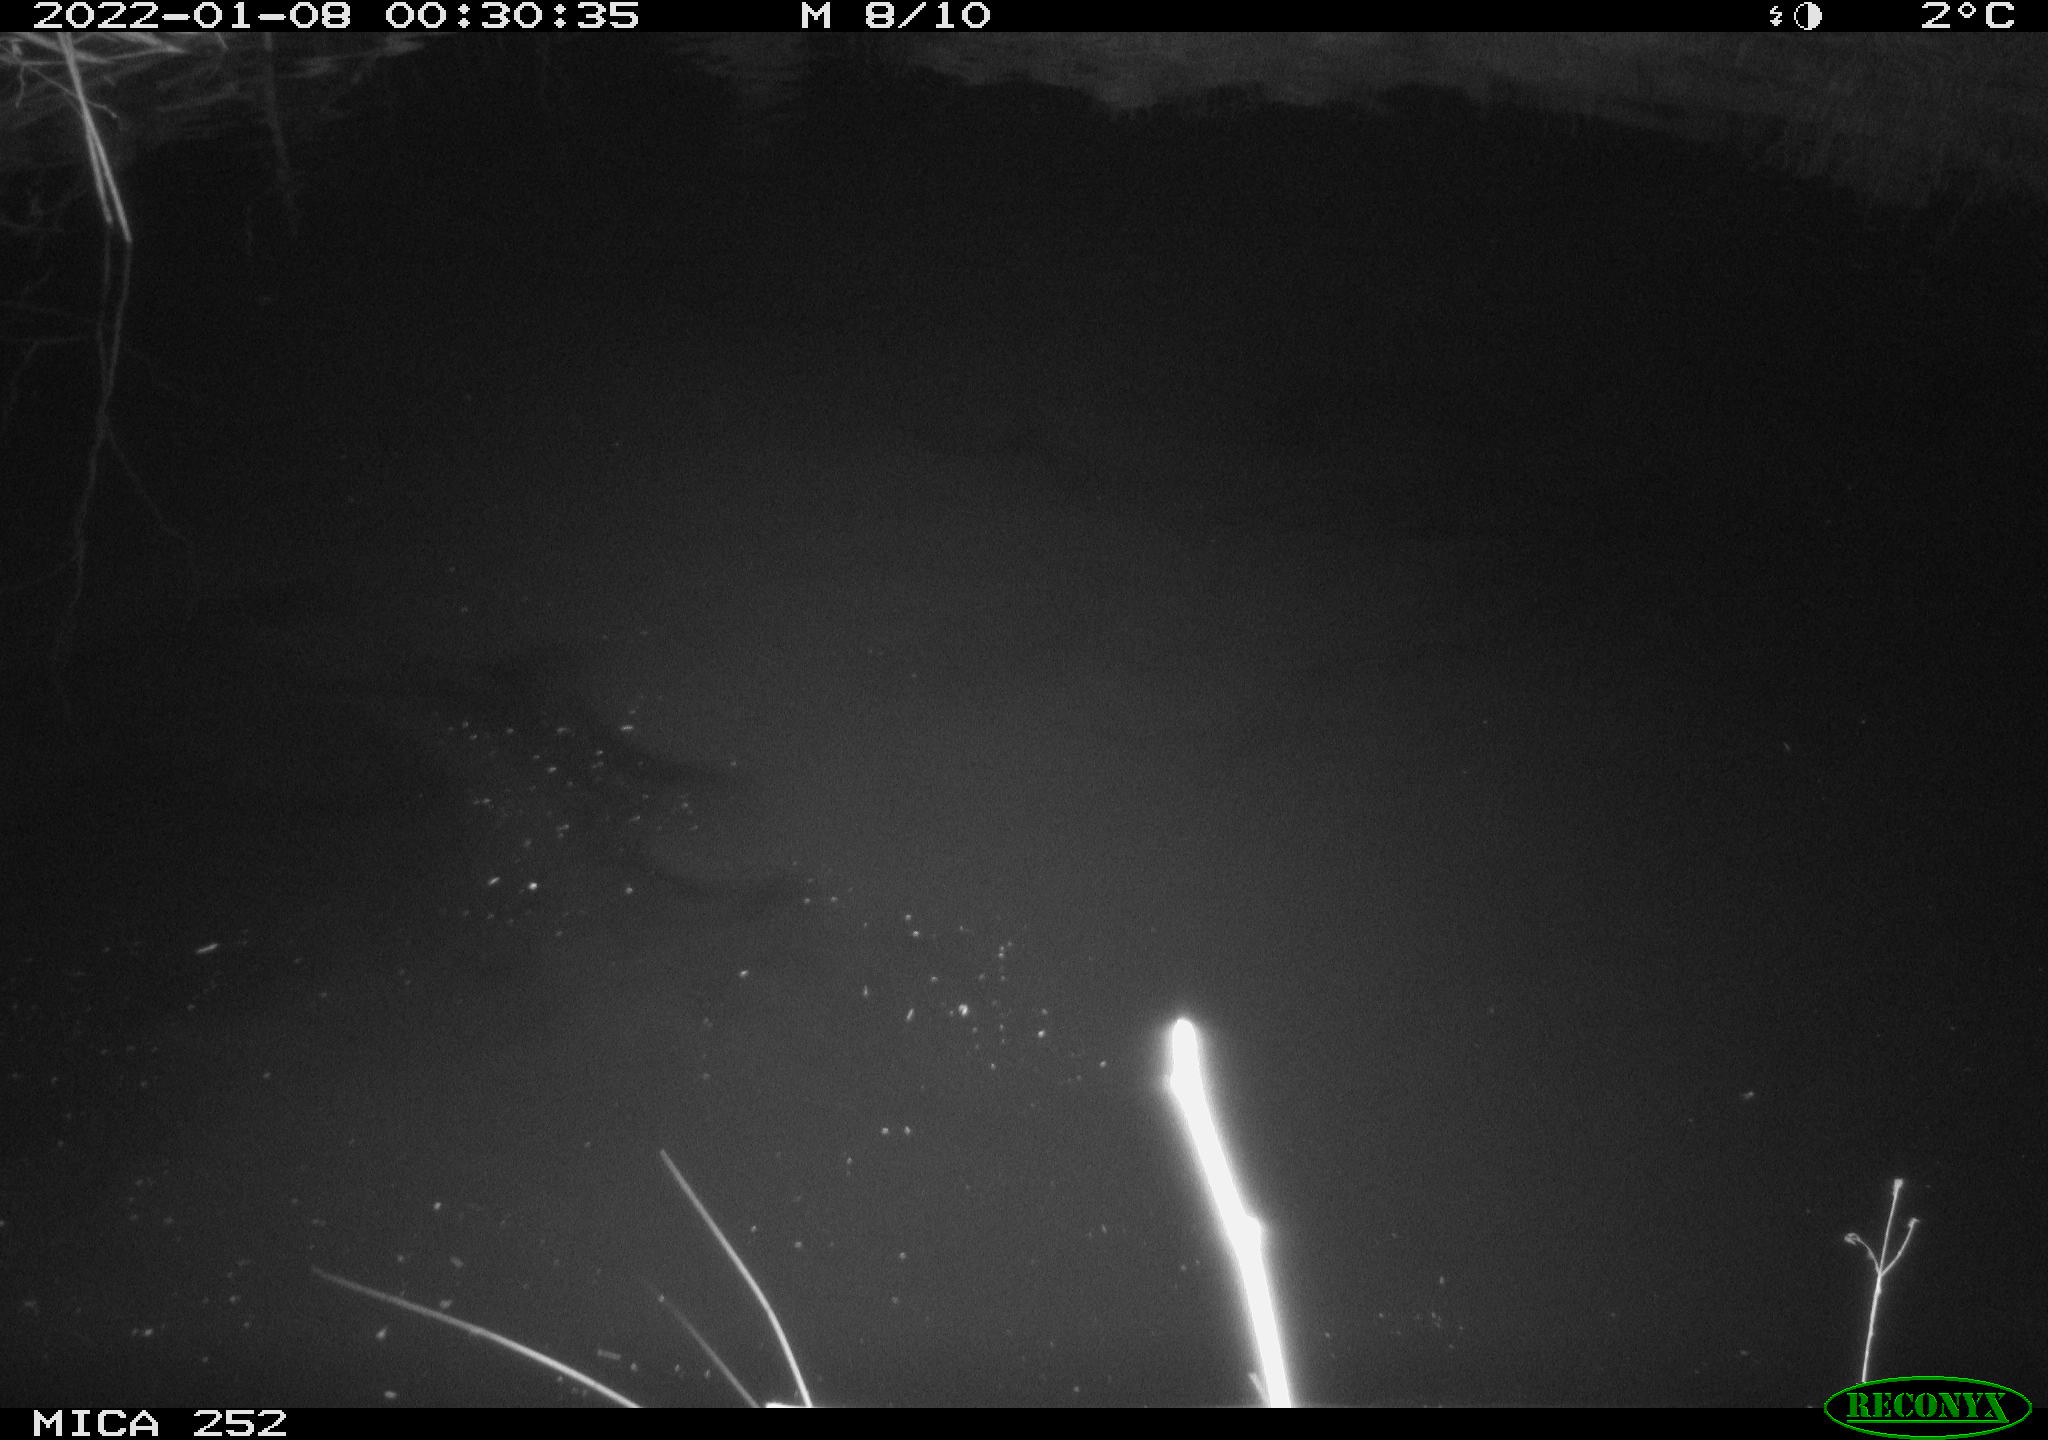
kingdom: Animalia
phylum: Chordata
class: Mammalia
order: Rodentia
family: Castoridae
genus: Castor
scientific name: Castor fiber
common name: Eurasian beaver
